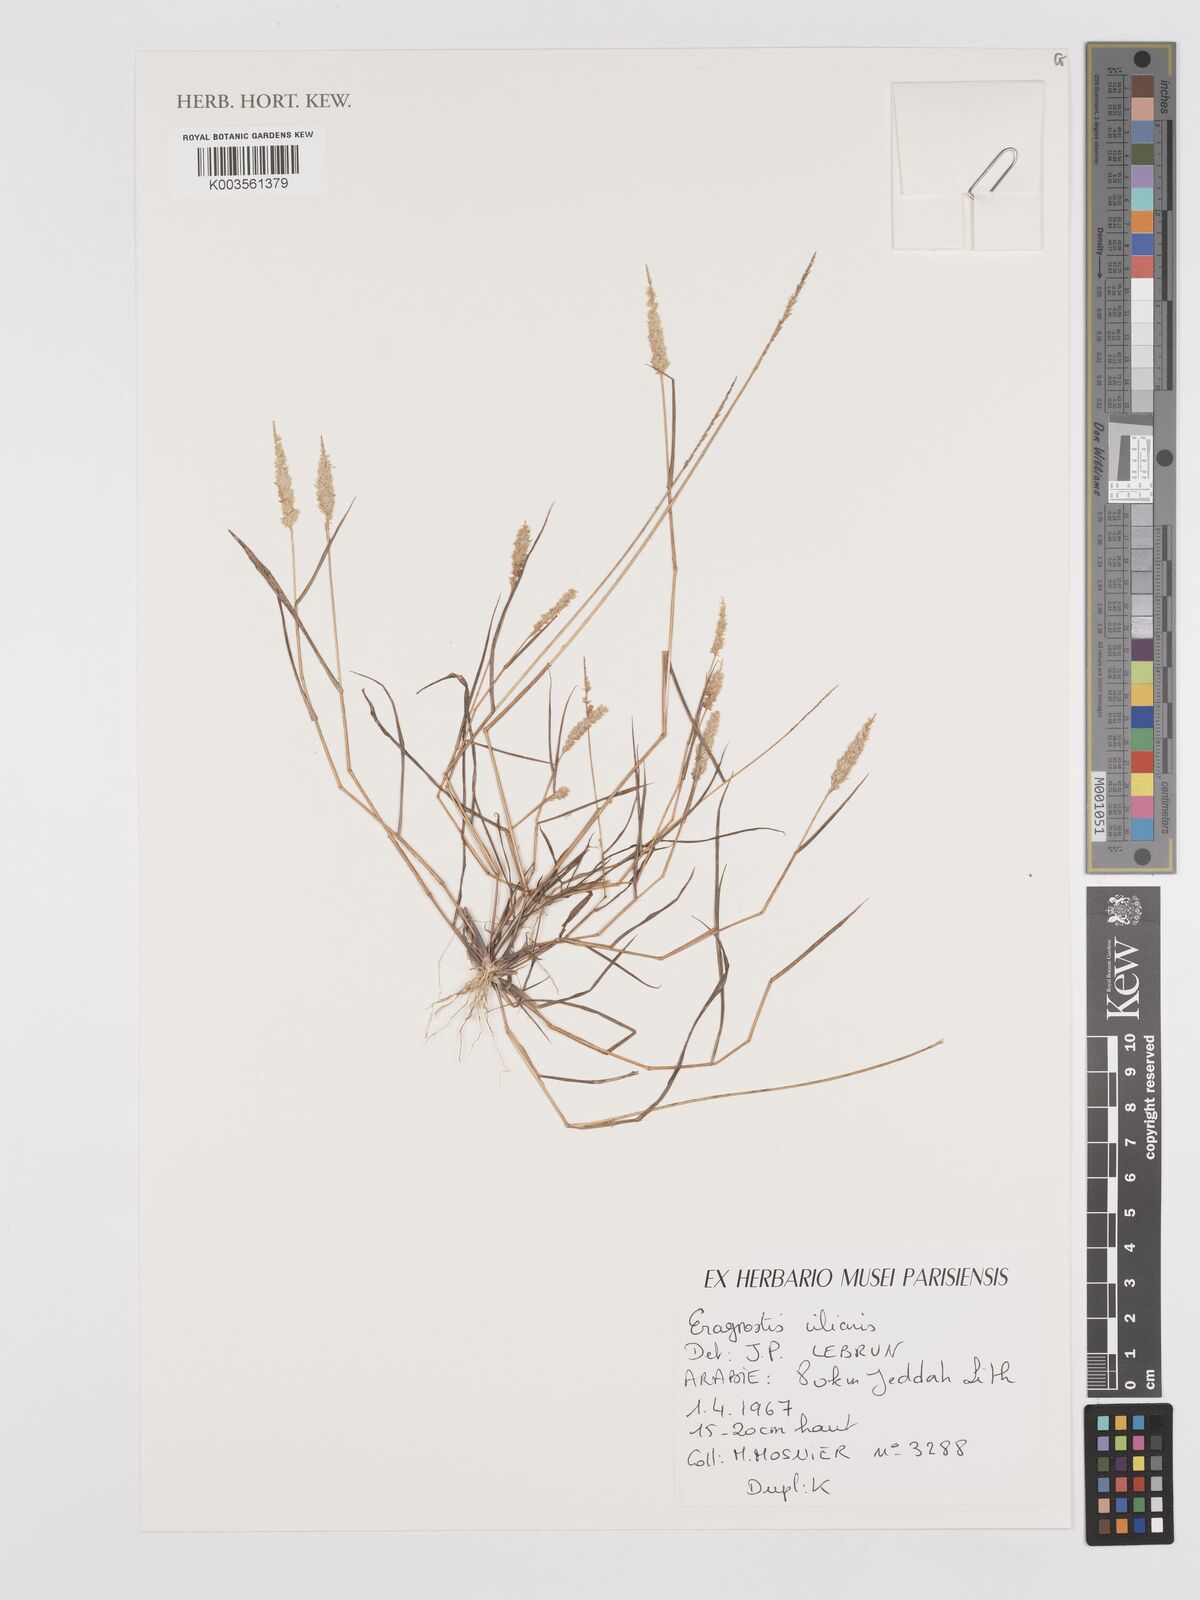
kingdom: Plantae
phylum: Tracheophyta
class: Liliopsida
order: Poales
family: Poaceae
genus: Eragrostis
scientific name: Eragrostis ciliaris
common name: Gophertail lovegrass
